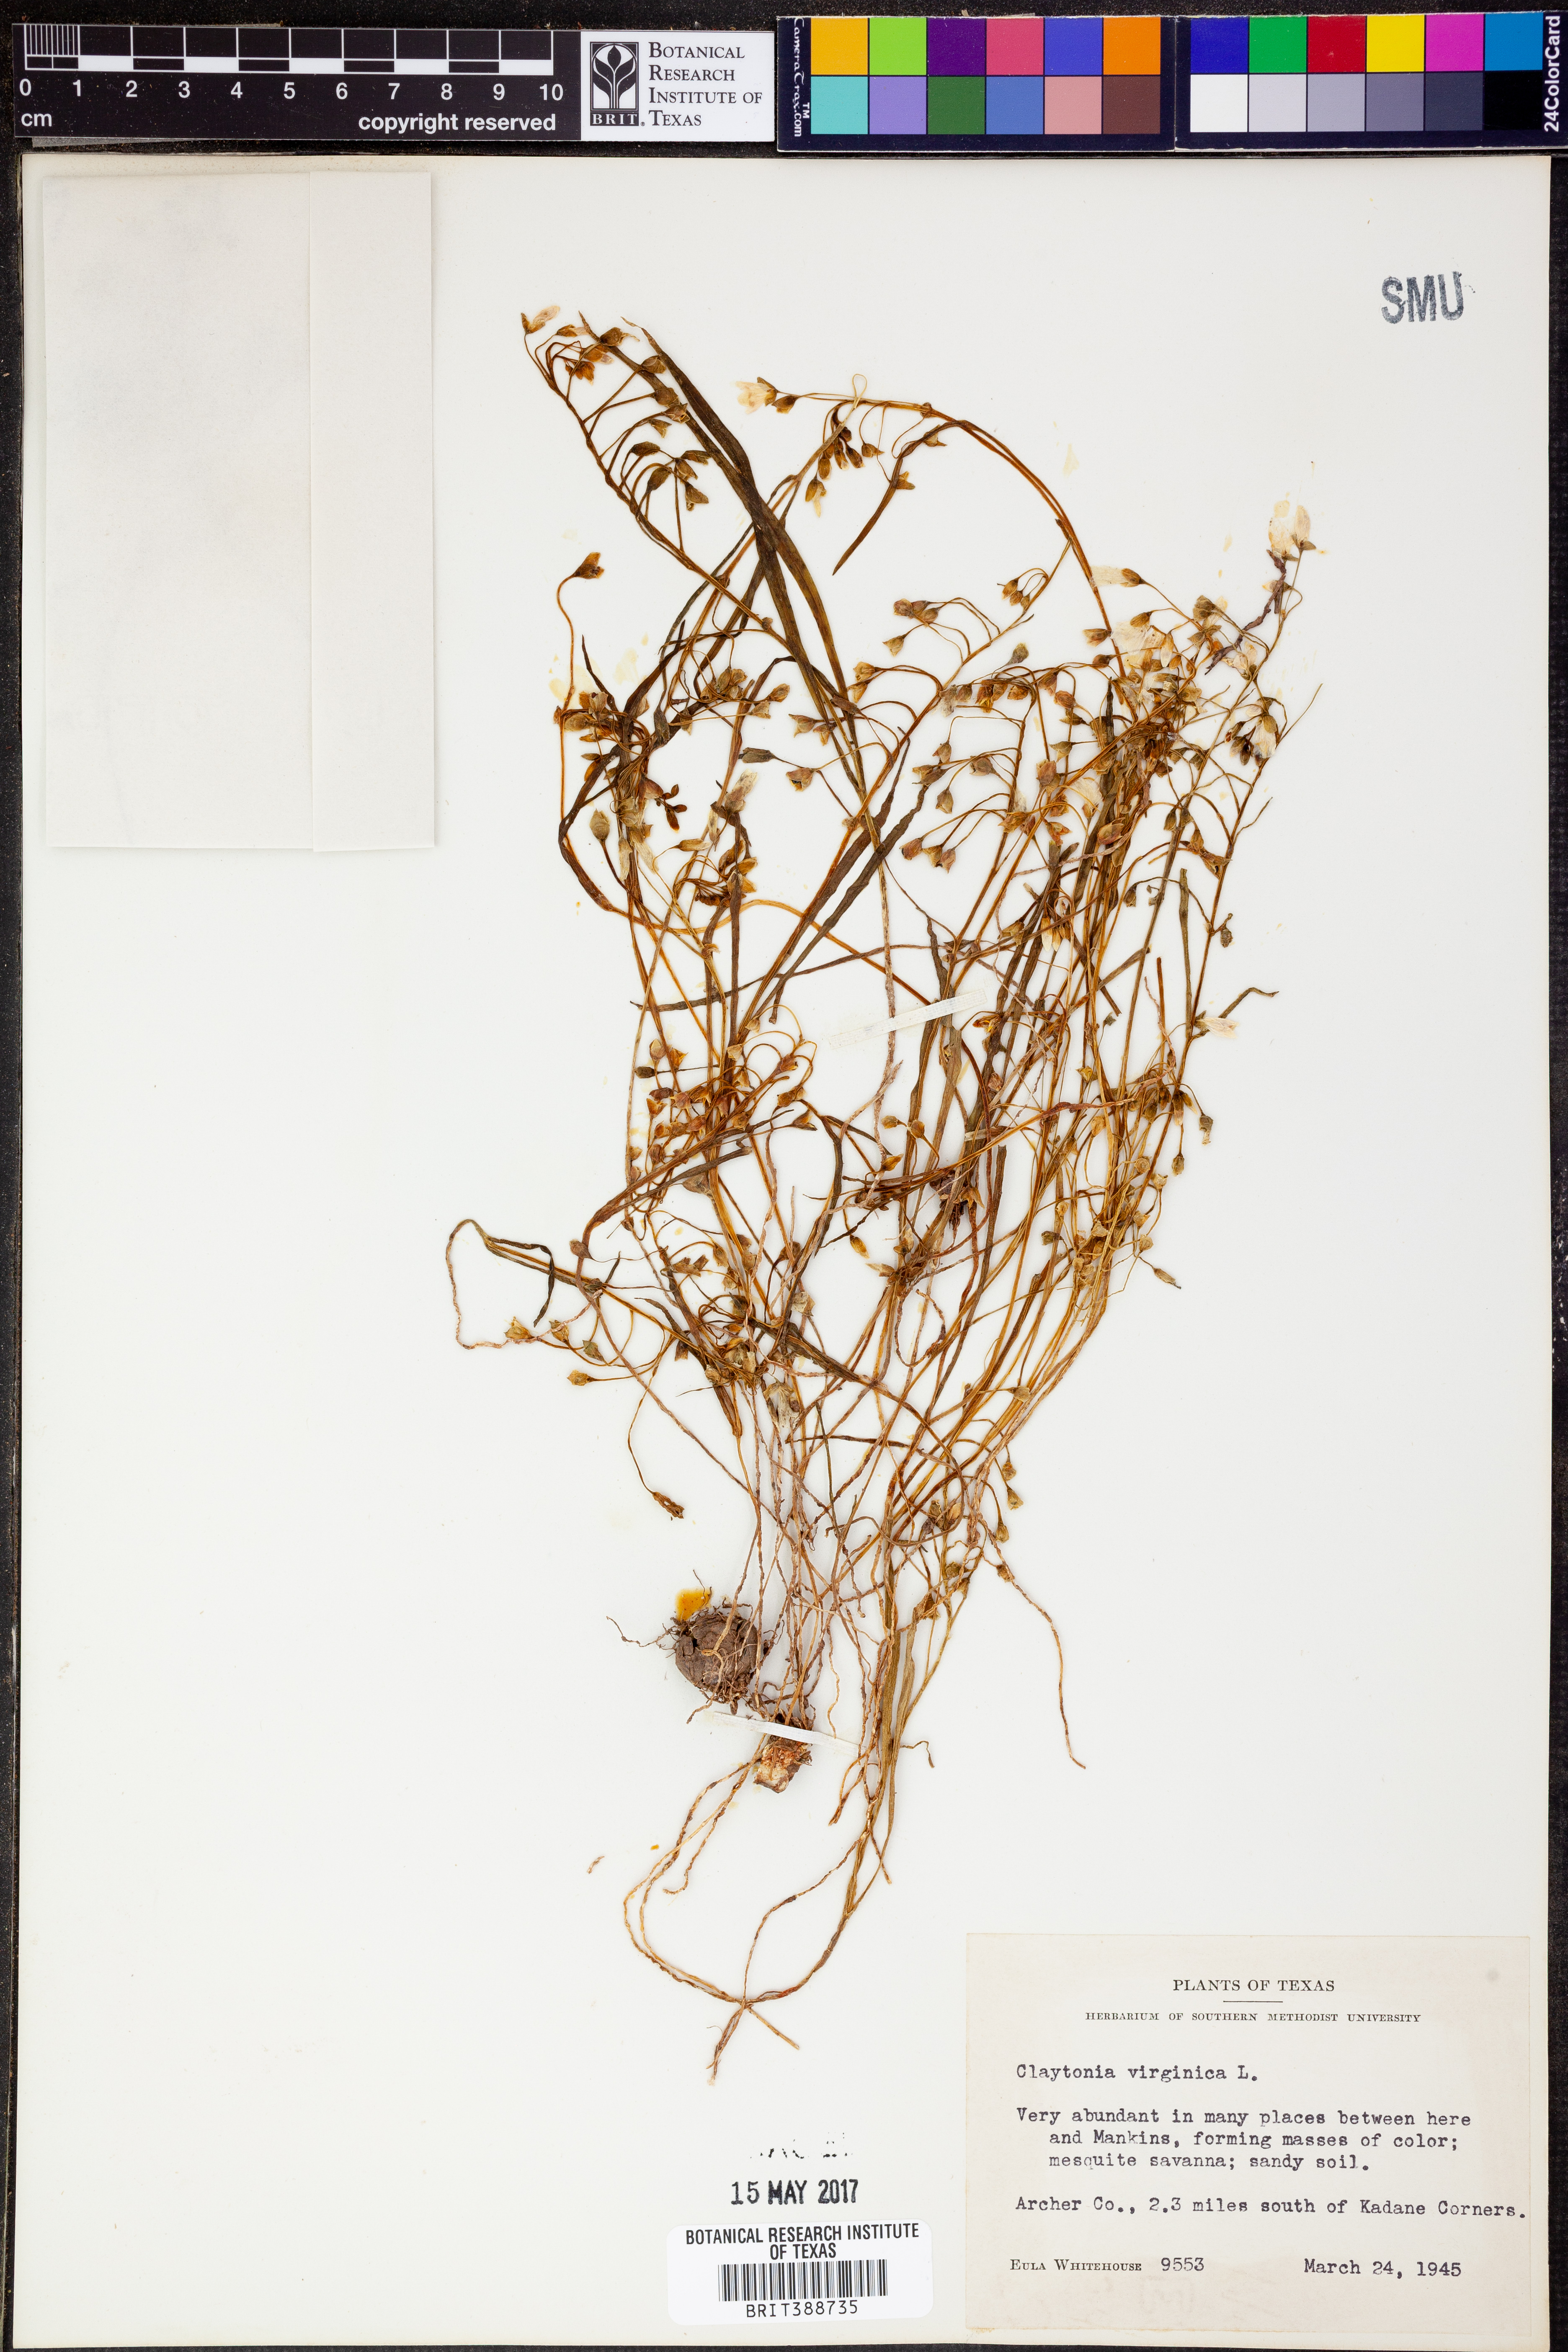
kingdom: Plantae
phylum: Tracheophyta
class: Magnoliopsida
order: Caryophyllales
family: Montiaceae
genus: Claytonia
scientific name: Claytonia virginica
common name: Virginia springbeauty
